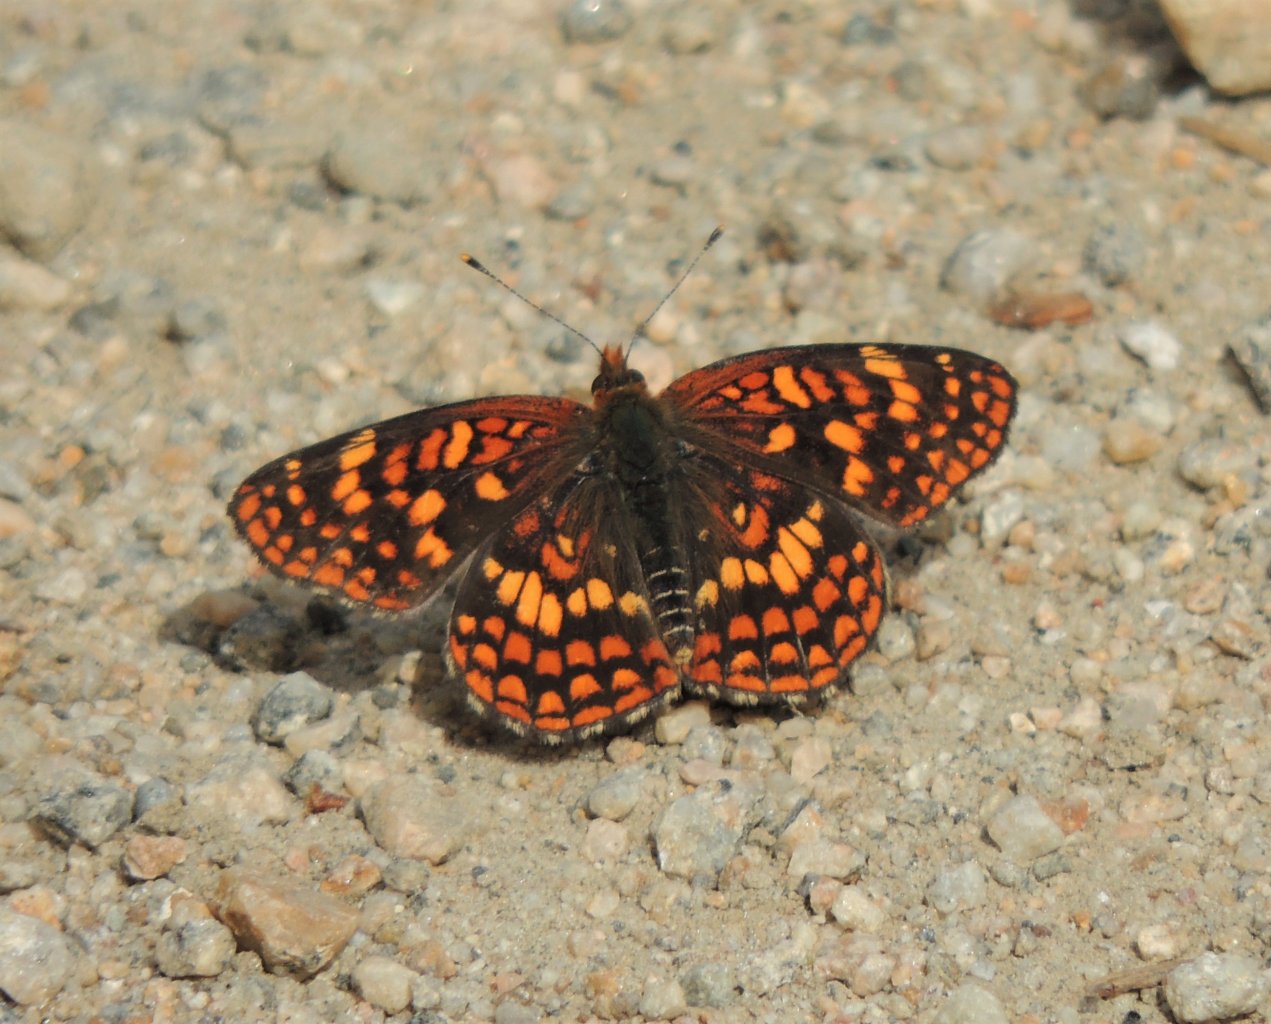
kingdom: Animalia
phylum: Arthropoda
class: Insecta
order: Lepidoptera
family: Nymphalidae
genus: Chlosyne
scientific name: Chlosyne palla
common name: Northern Checkerspot
